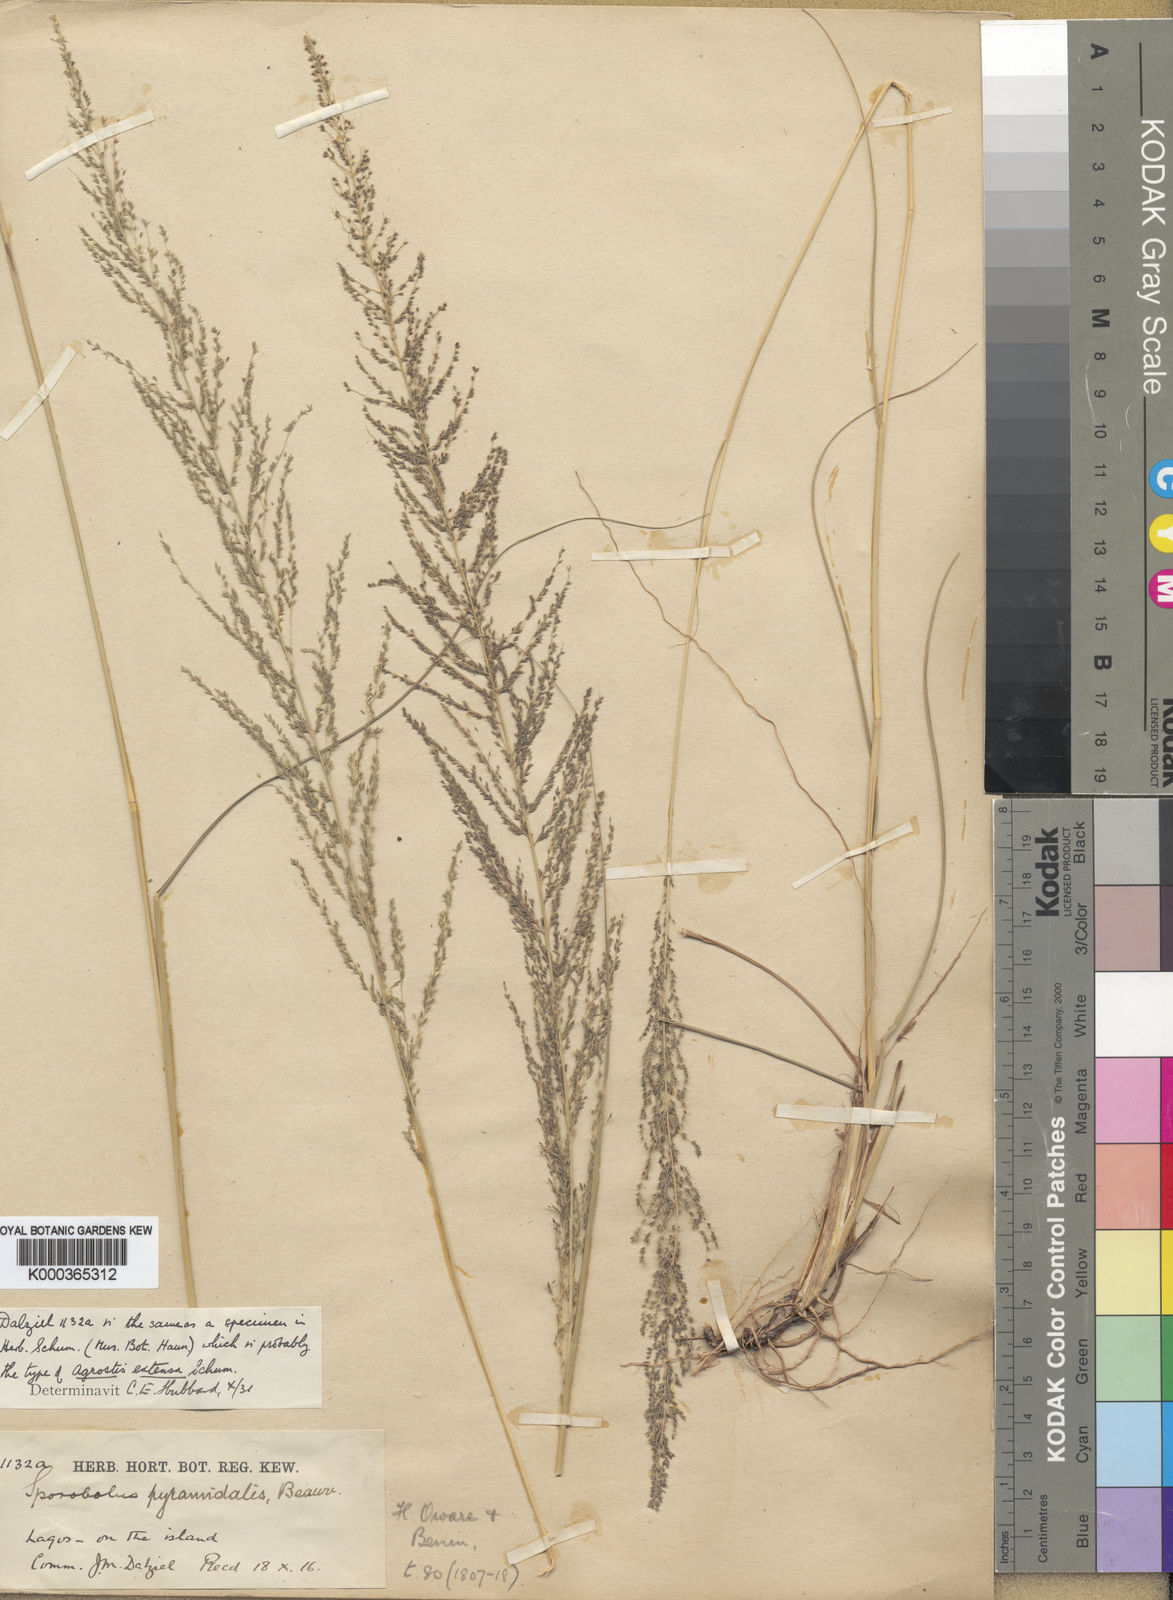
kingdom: Plantae
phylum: Tracheophyta
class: Liliopsida
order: Poales
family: Poaceae
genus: Sporobolus
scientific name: Sporobolus pyramidalis
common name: West indian dropseed
